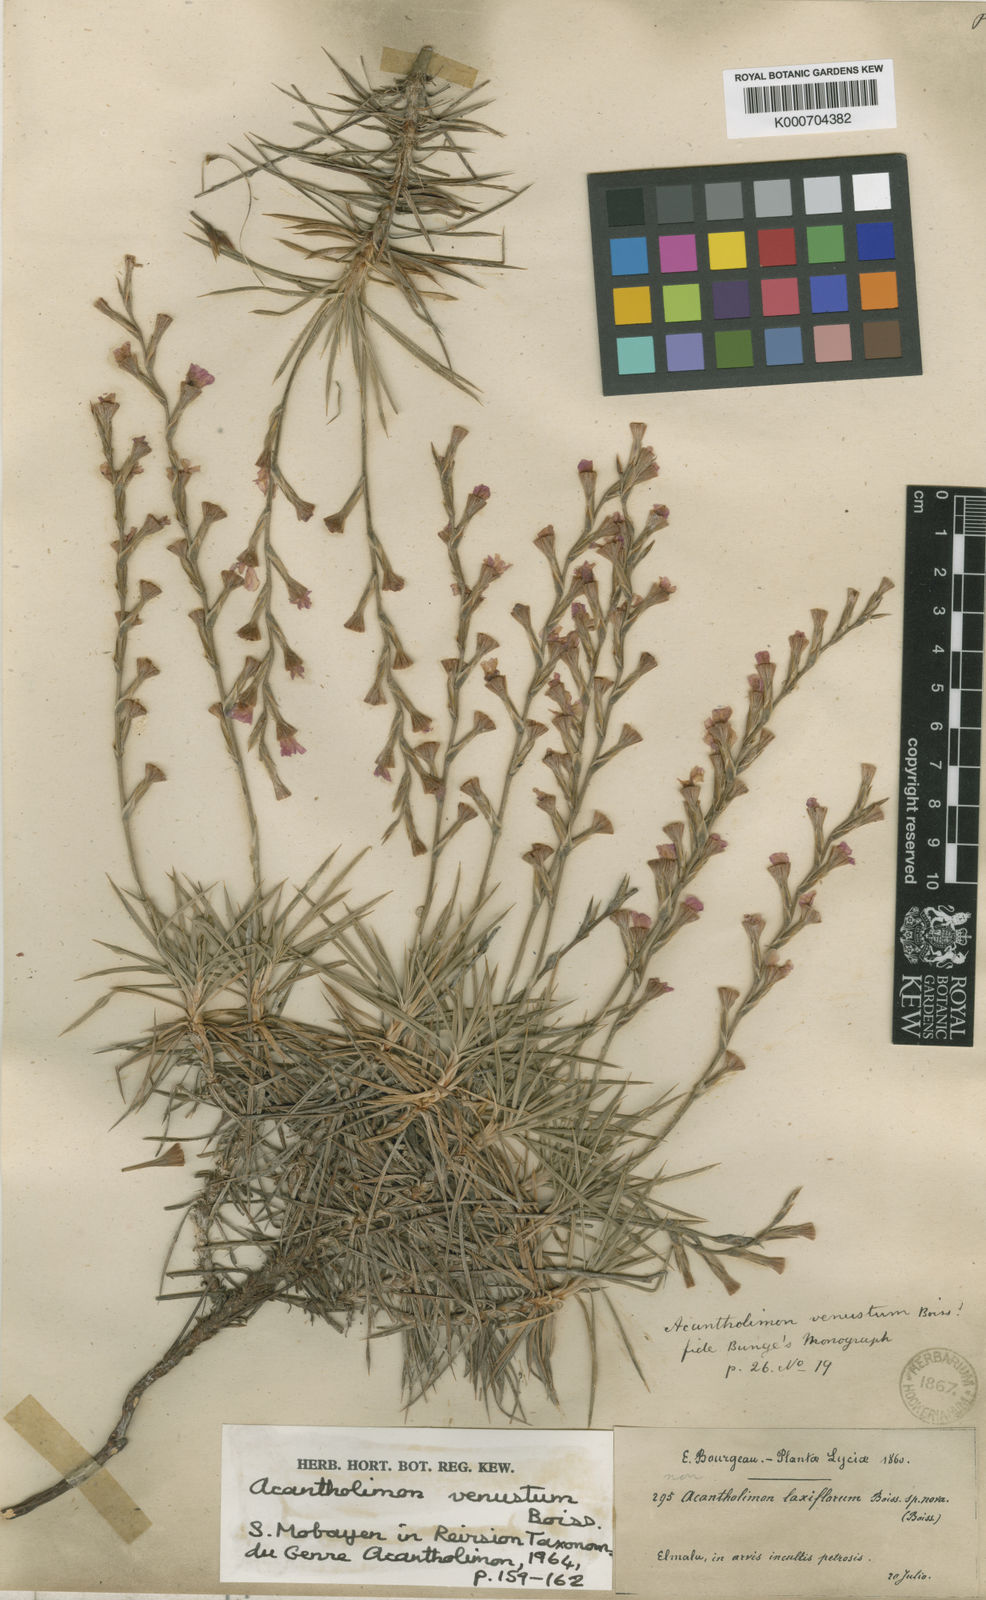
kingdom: Plantae
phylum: Tracheophyta
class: Magnoliopsida
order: Caryophyllales
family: Plumbaginaceae
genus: Acantholimon
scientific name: Acantholimon venustum
